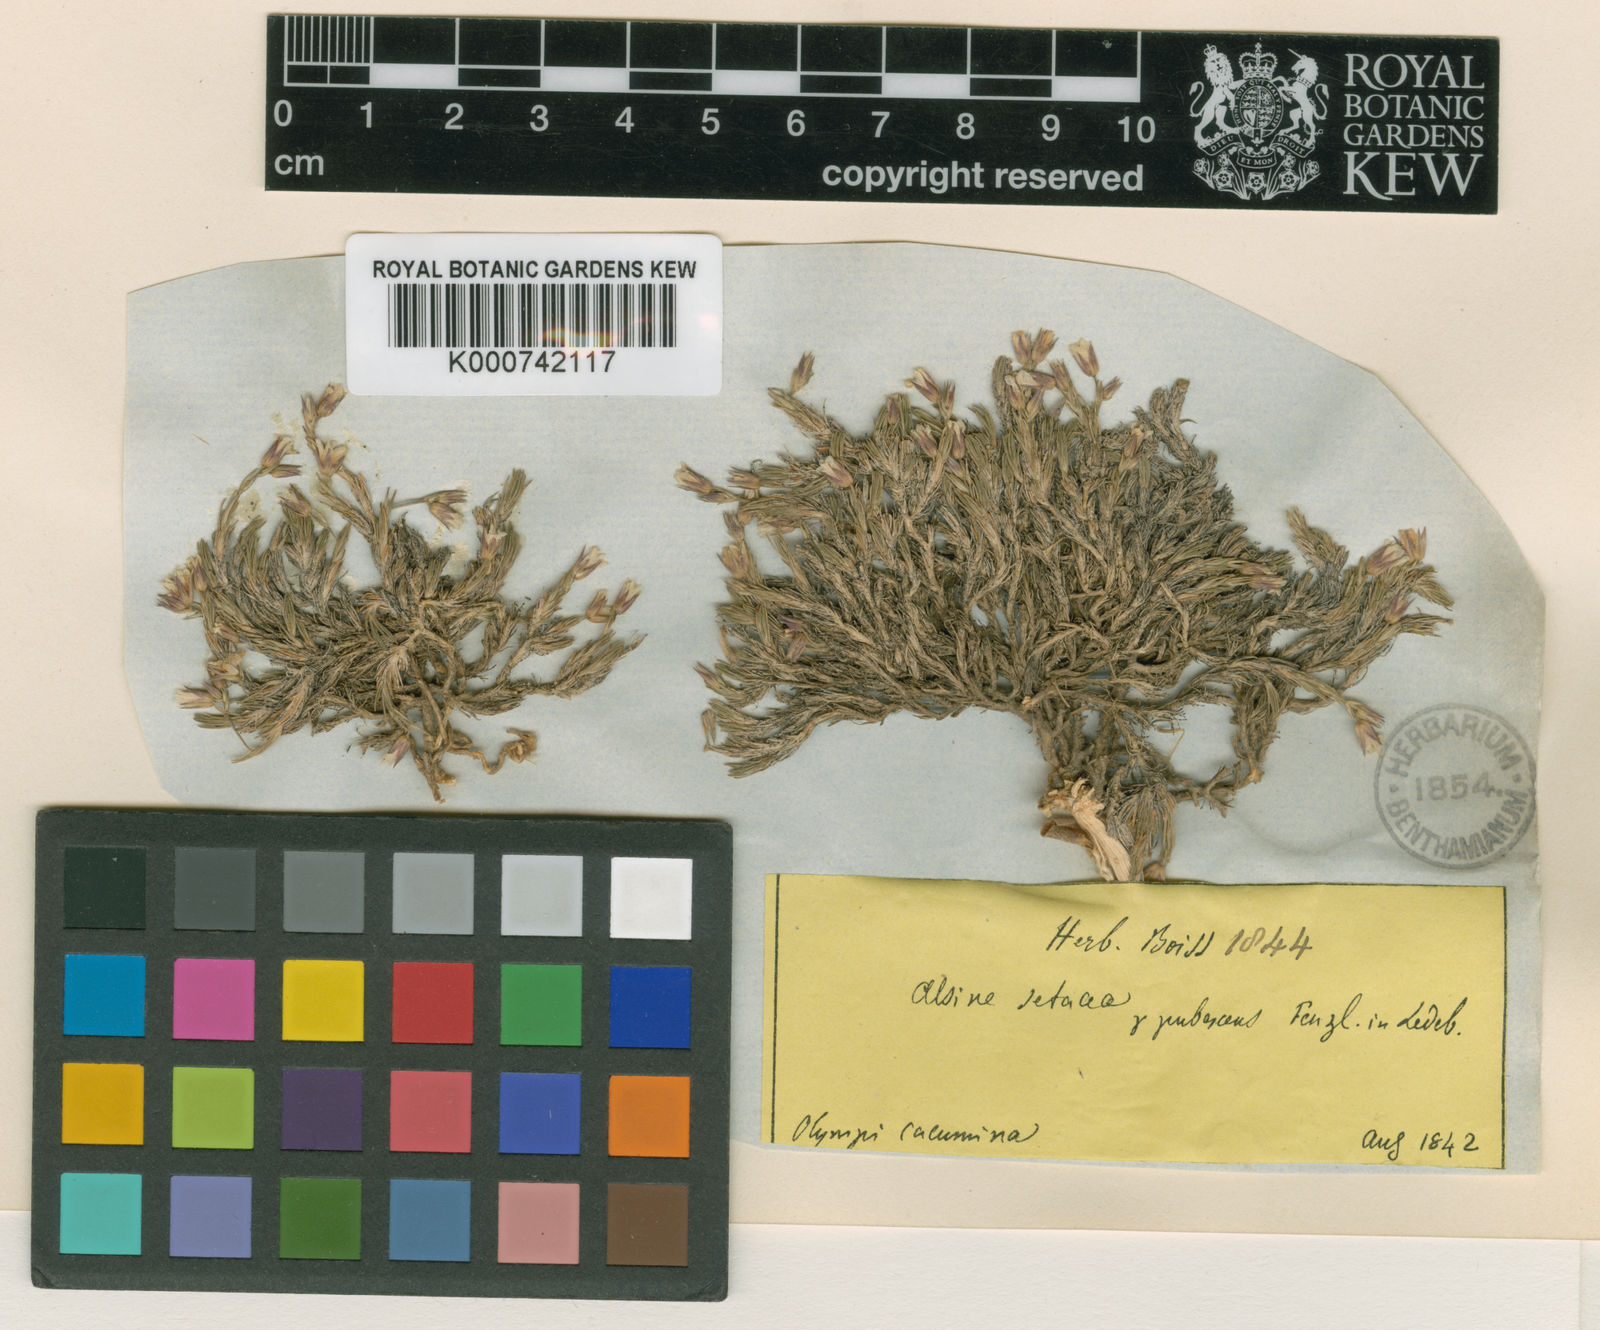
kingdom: Plantae
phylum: Tracheophyta
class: Magnoliopsida
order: Caryophyllales
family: Caryophyllaceae
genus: Minuartia
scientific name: Minuartia erythrosepala
